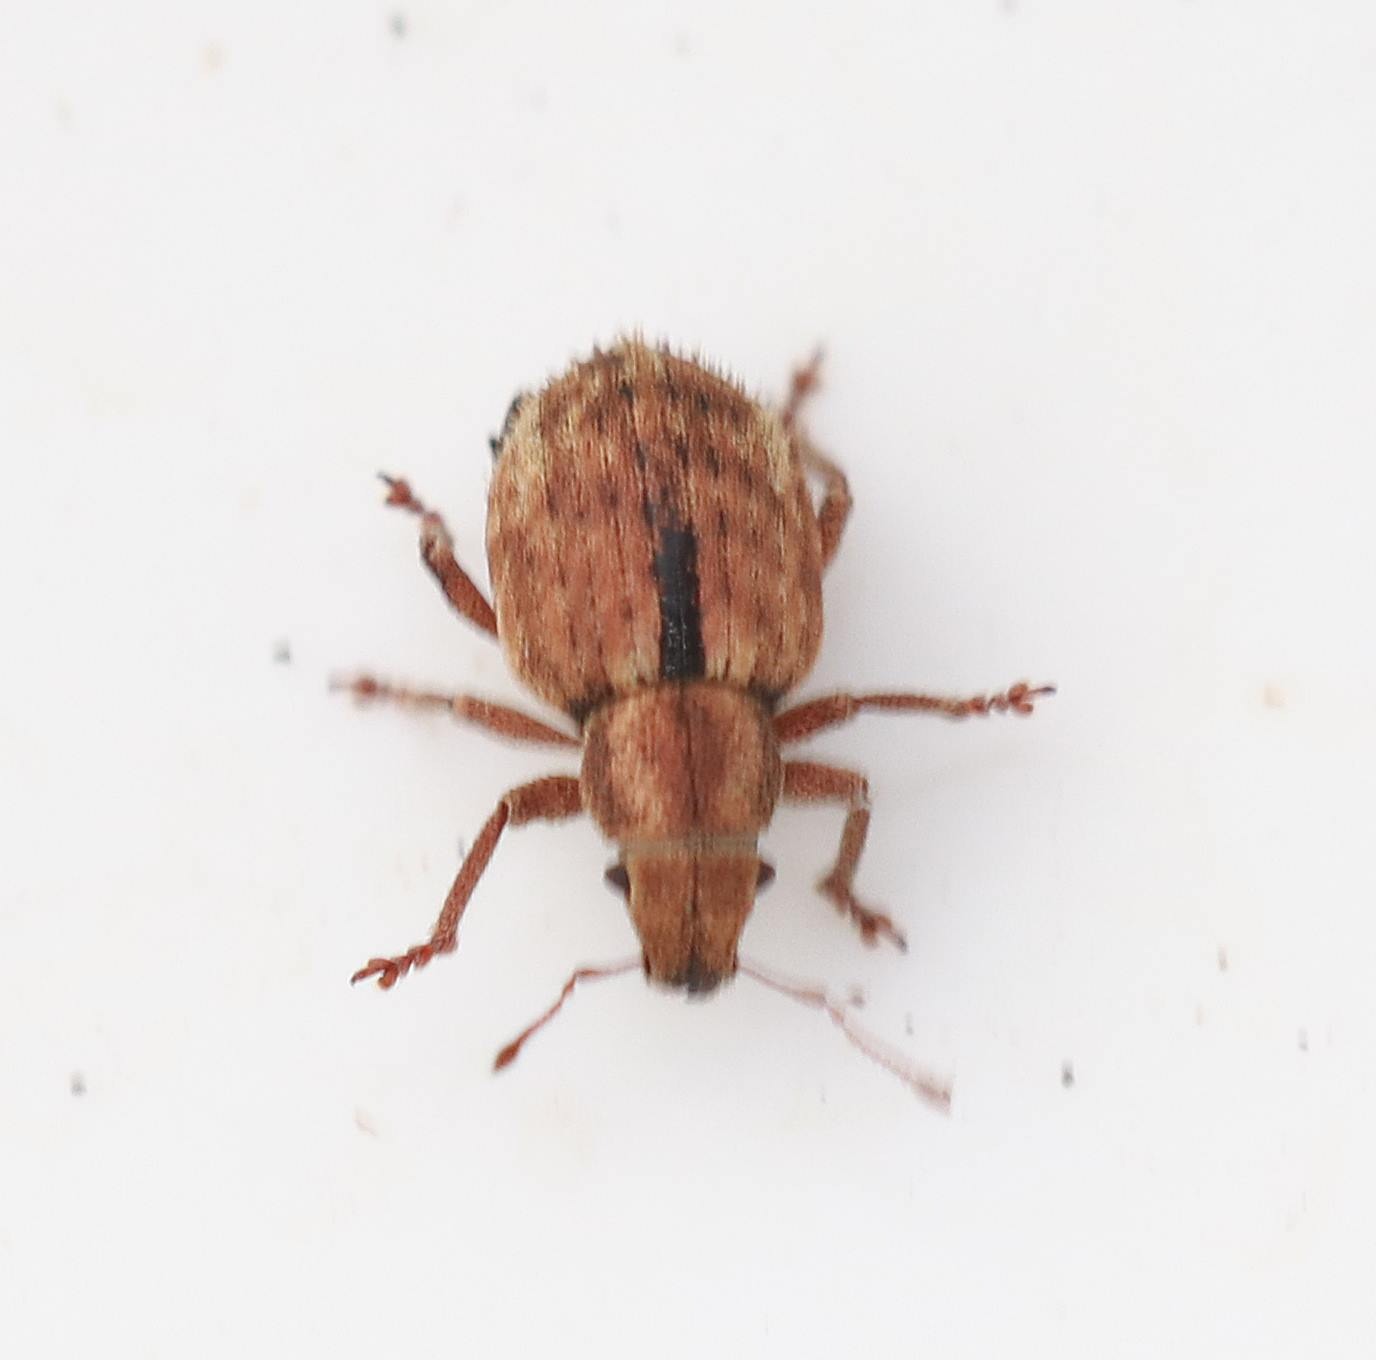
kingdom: Animalia
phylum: Arthropoda
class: Insecta
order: Coleoptera
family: Curculionidae
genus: Strophosoma
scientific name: Strophosoma melanogrammum
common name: Stribet gråsnude
